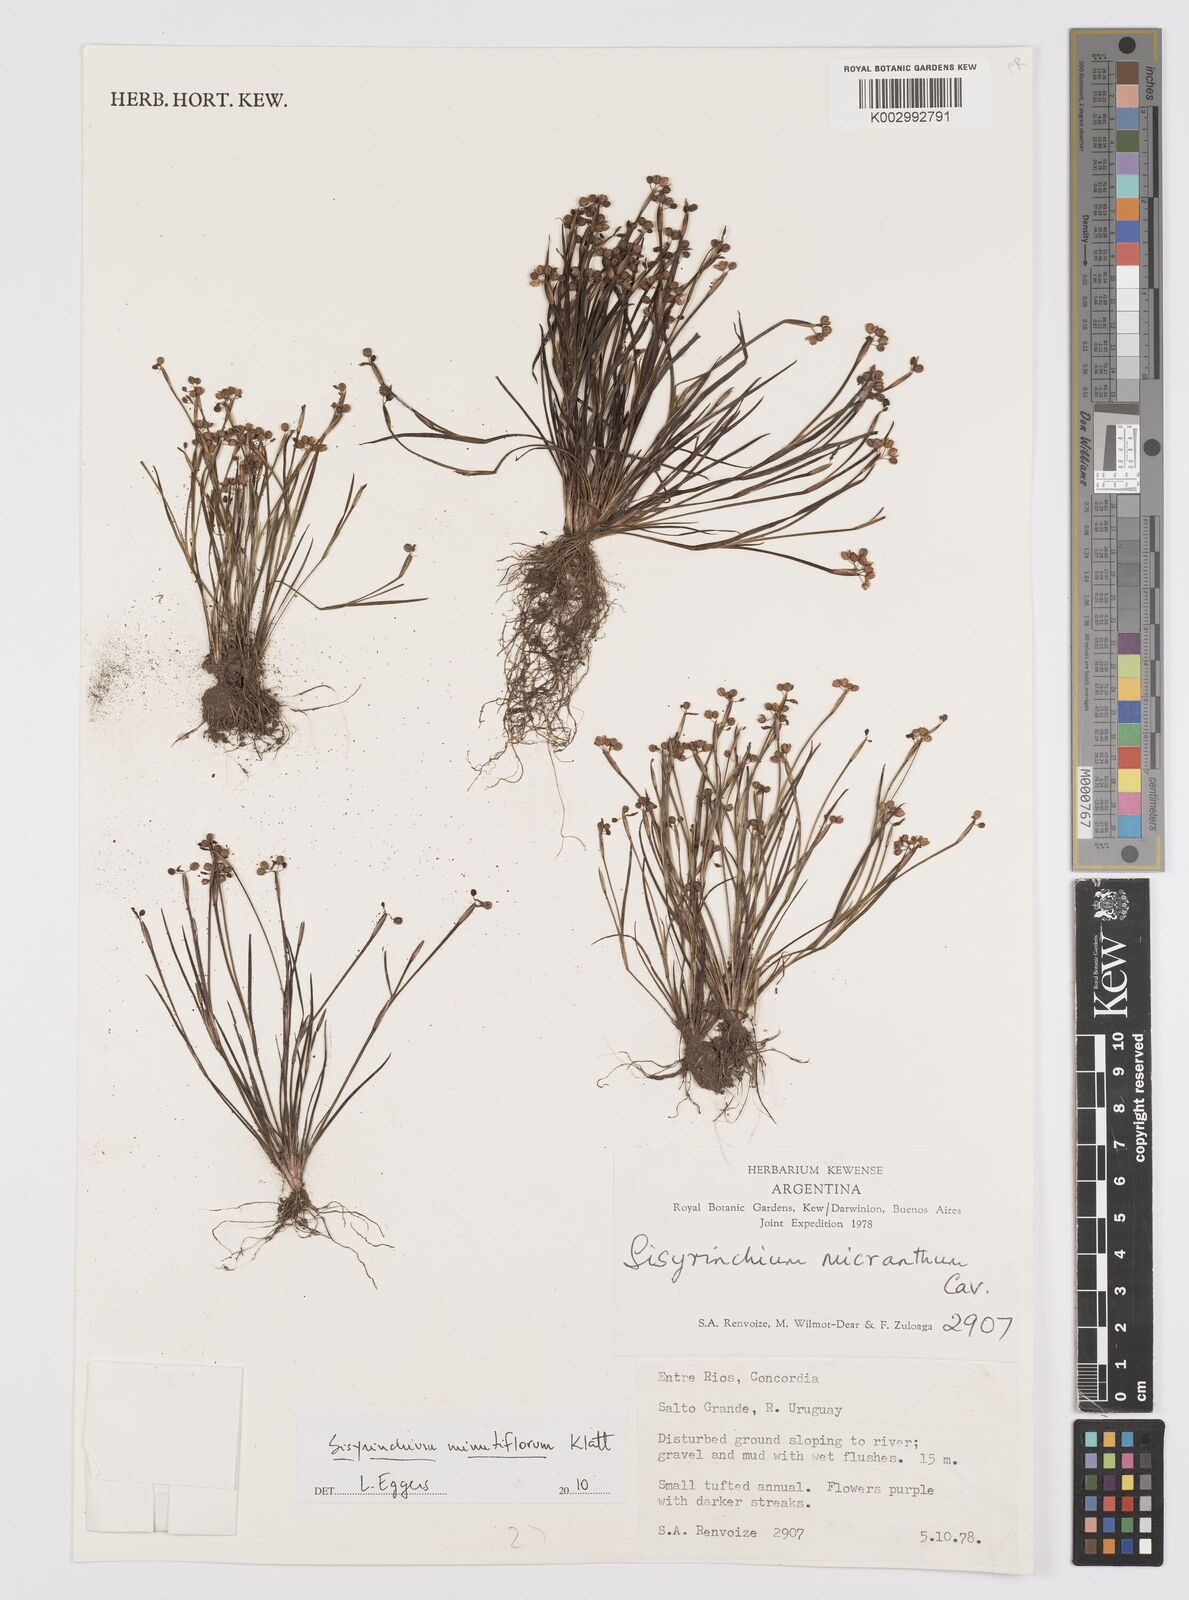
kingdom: Plantae
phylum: Tracheophyta
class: Liliopsida
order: Asparagales
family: Iridaceae
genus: Sisyrinchium
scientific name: Sisyrinchium minutiflorum
